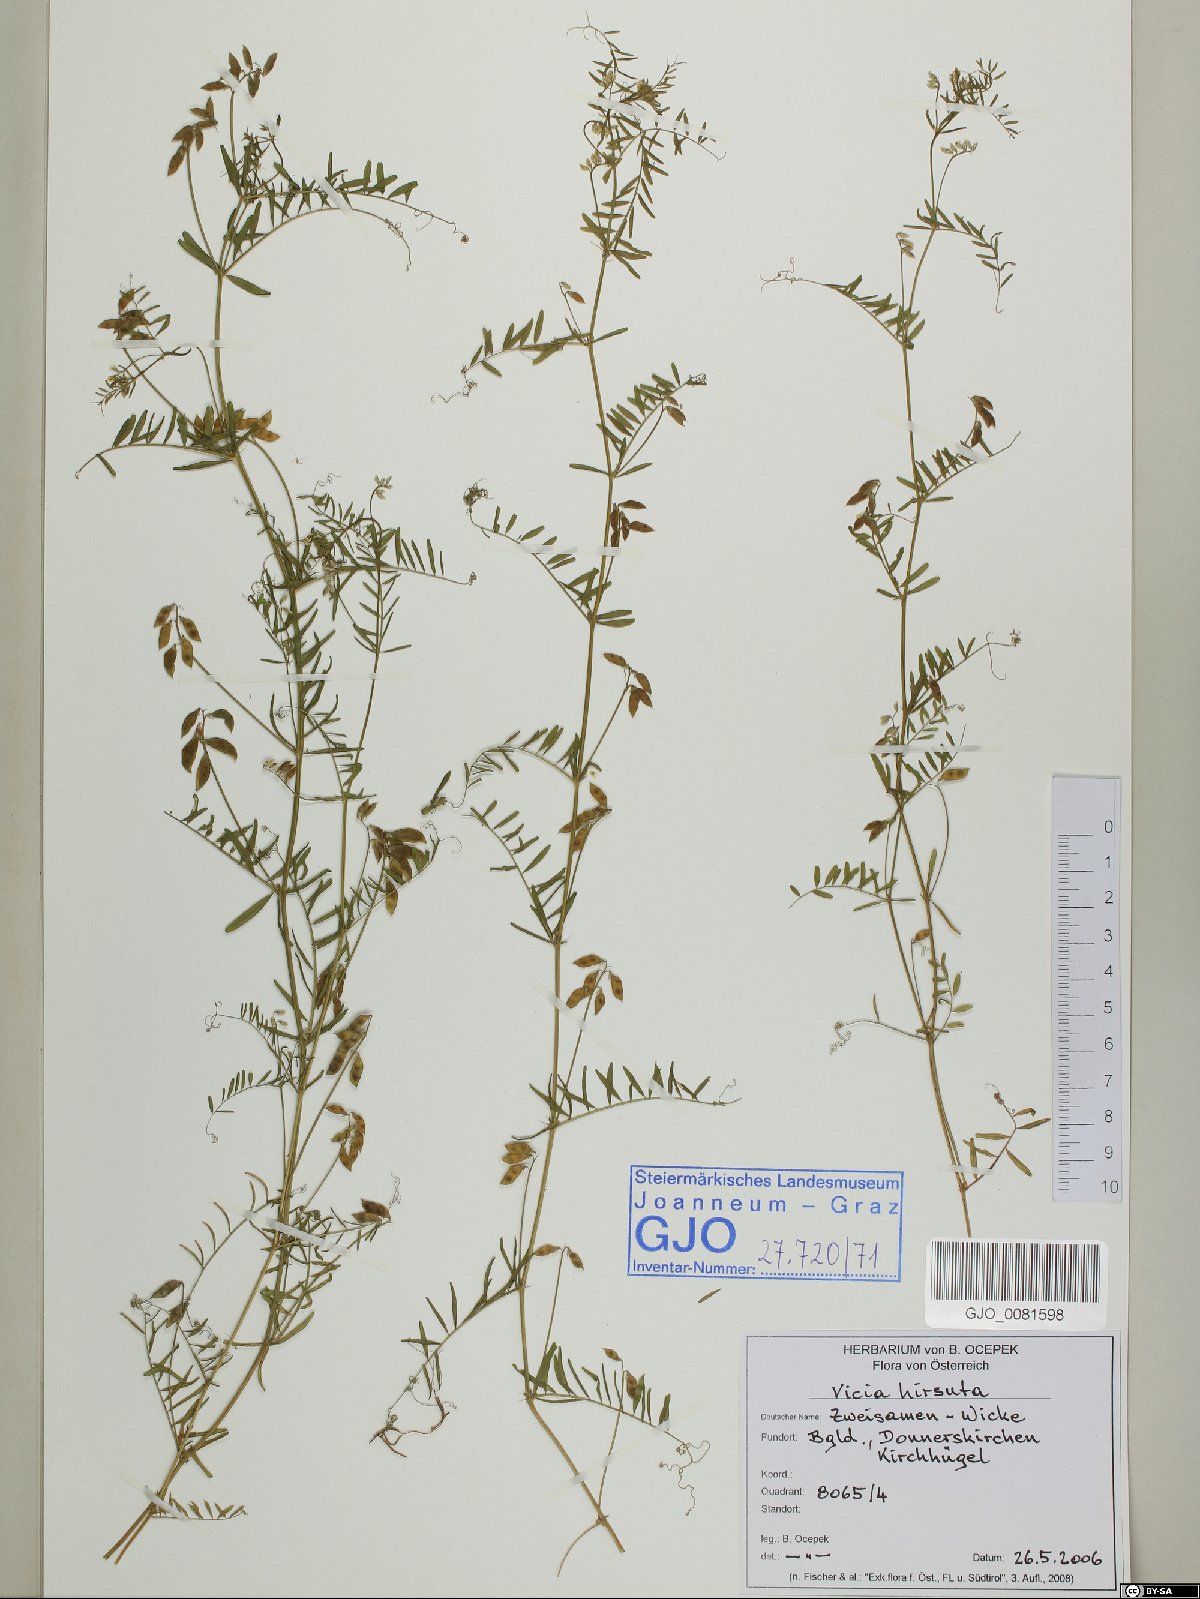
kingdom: Plantae
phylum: Tracheophyta
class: Magnoliopsida
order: Fabales
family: Fabaceae
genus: Vicia
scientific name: Vicia hirsuta
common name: Tiny vetch
